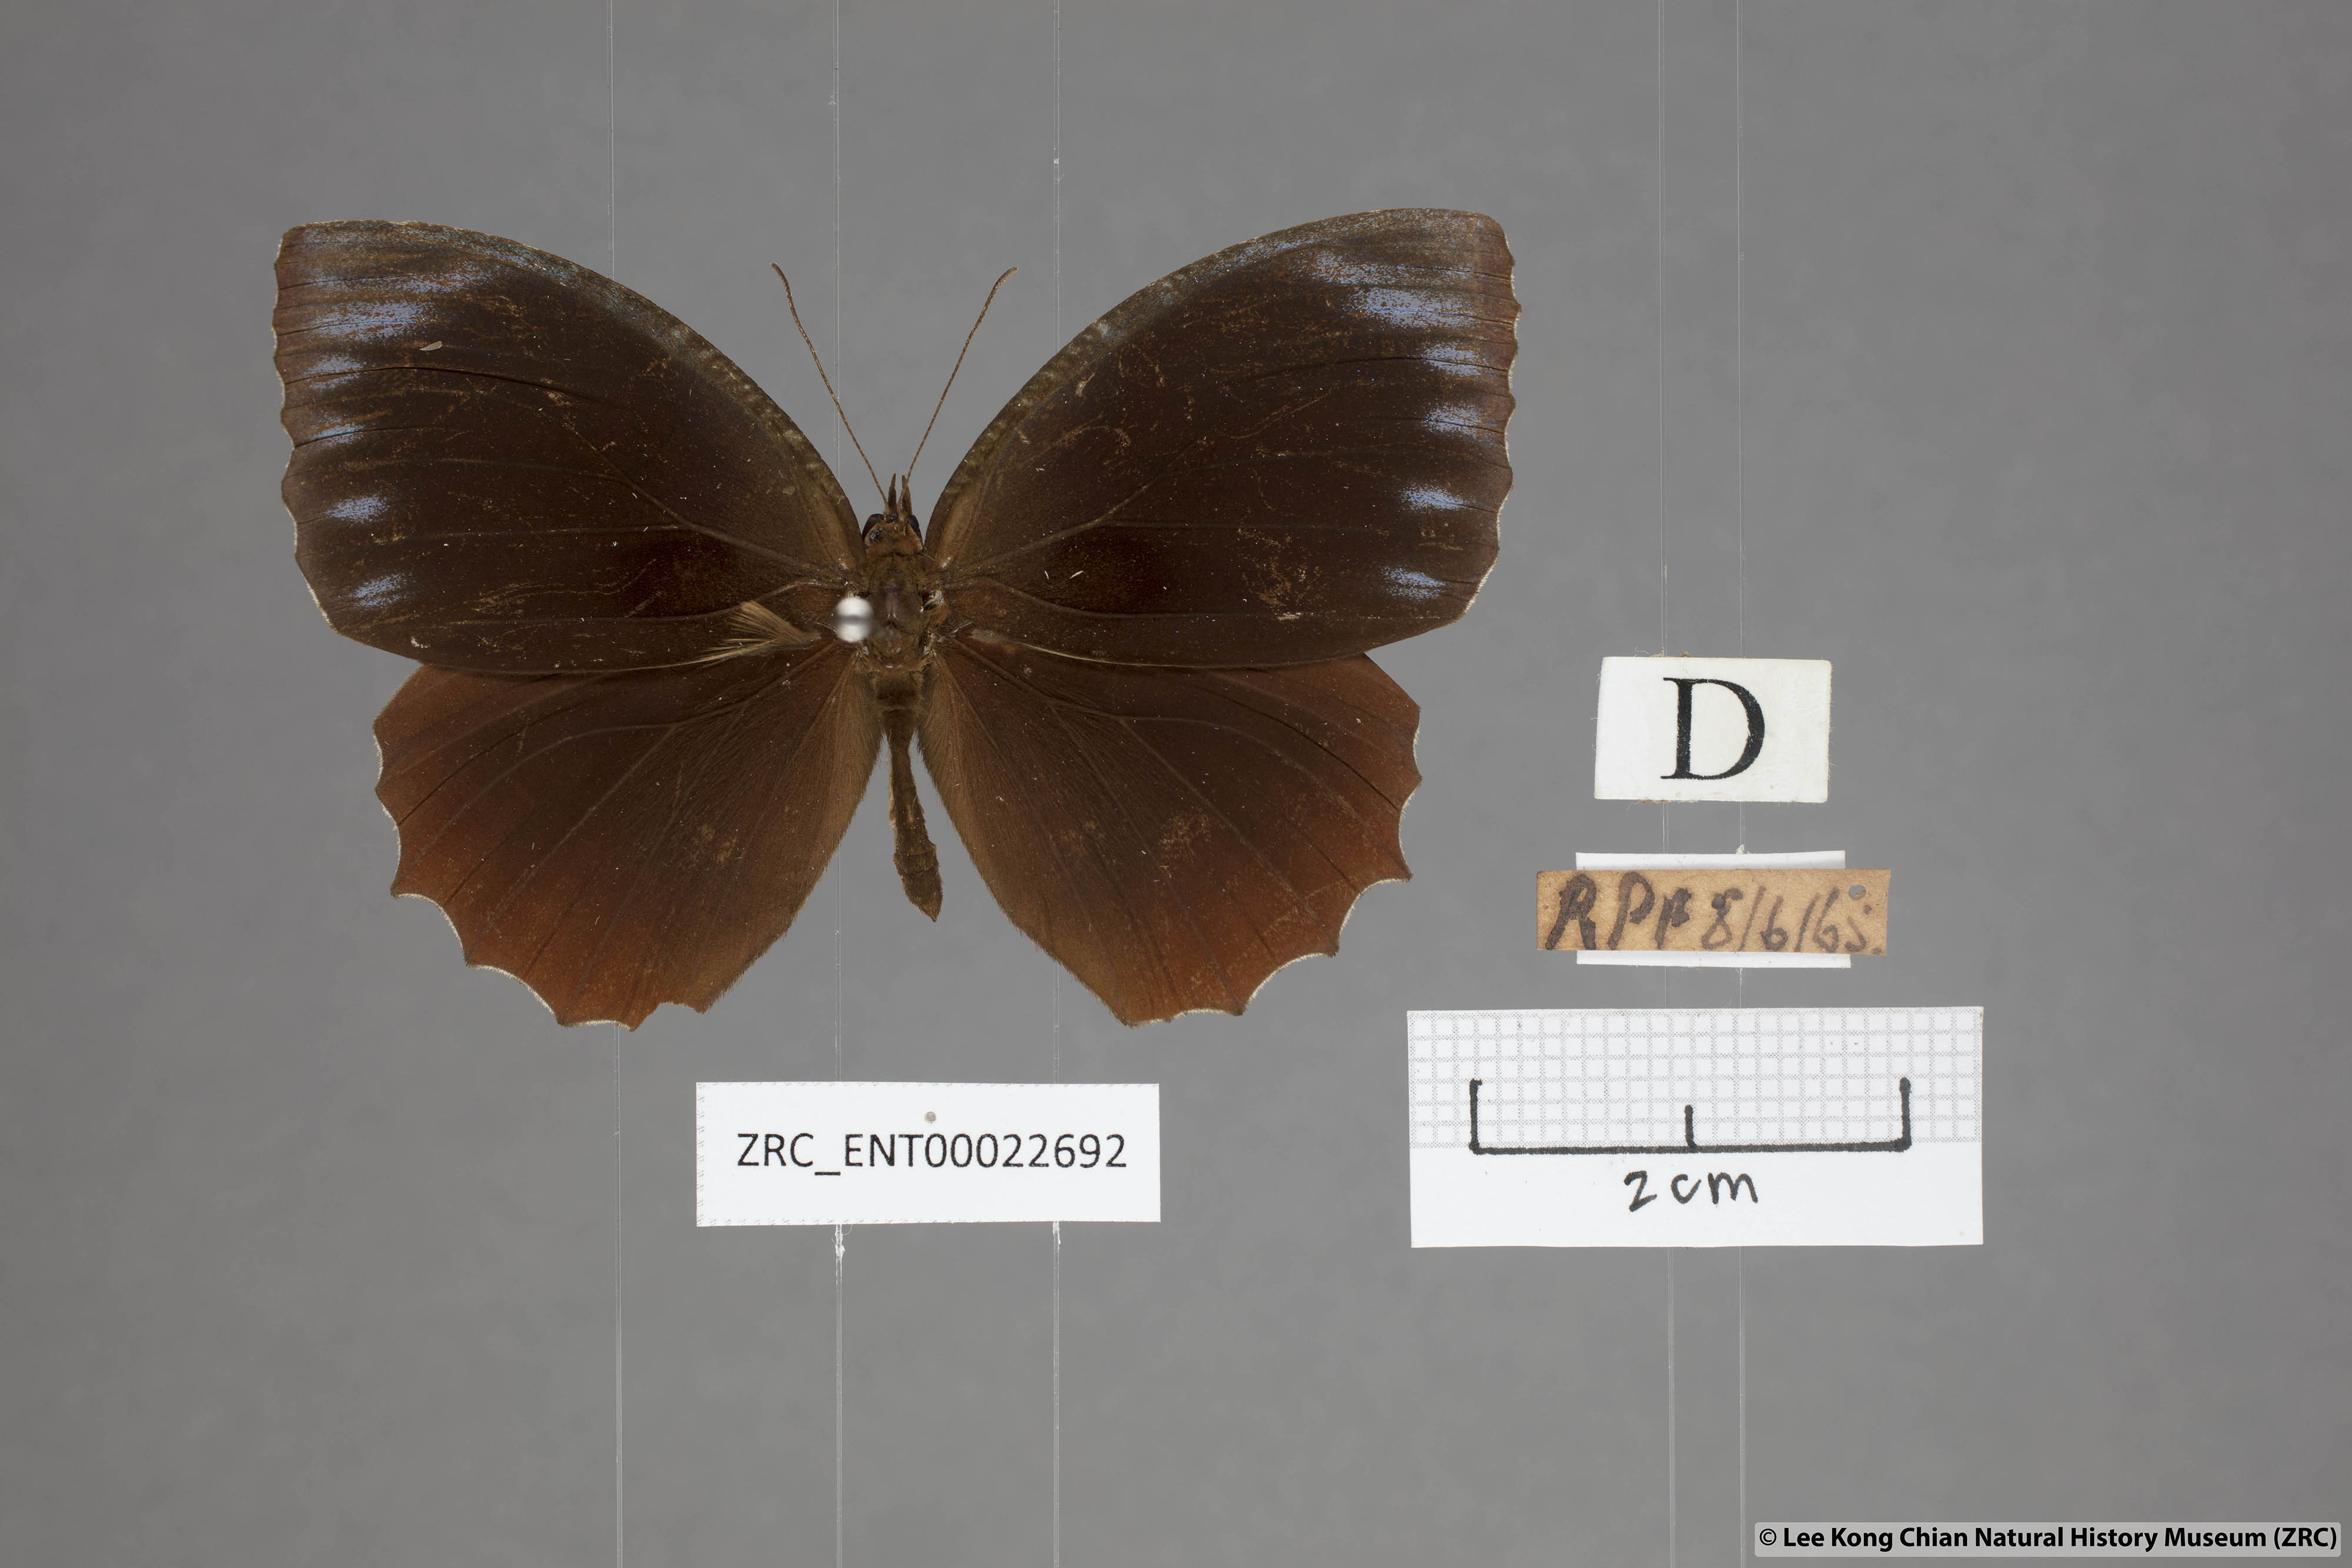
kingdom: Animalia
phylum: Arthropoda
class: Insecta
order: Lepidoptera
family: Nymphalidae
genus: Elymnias
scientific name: Elymnias hypermnestra
